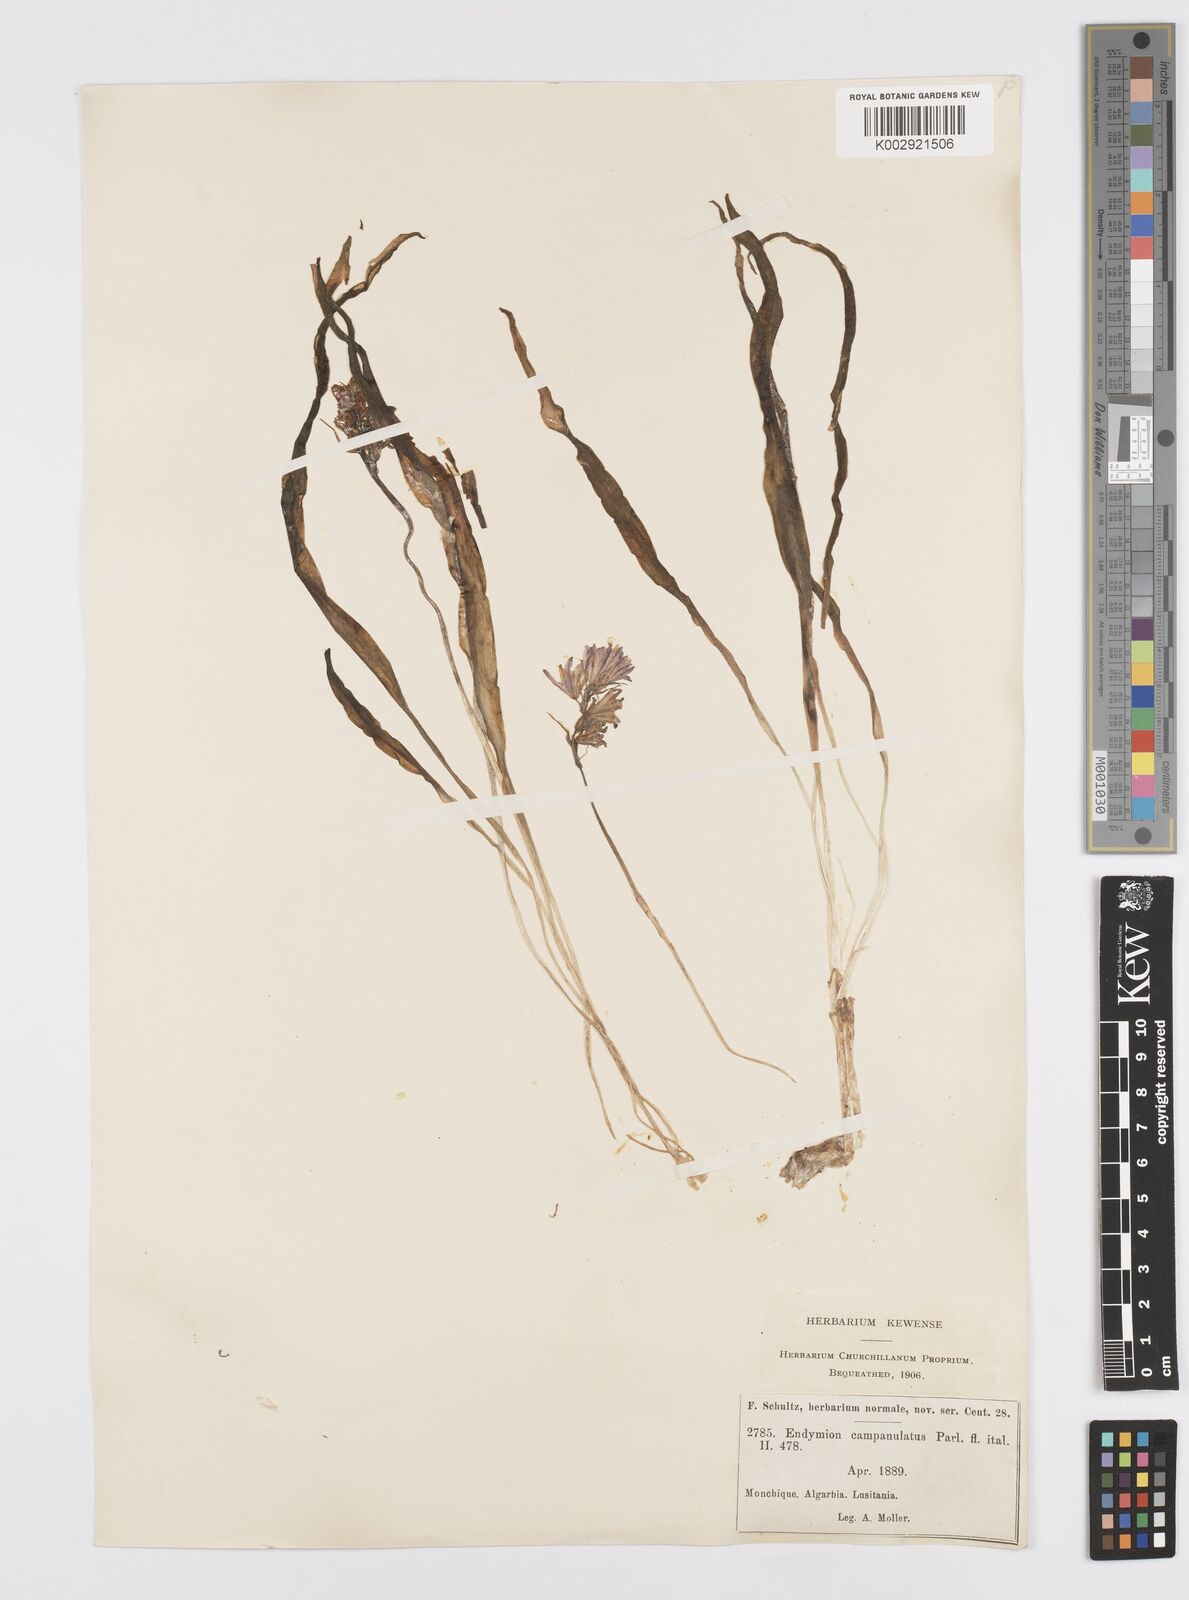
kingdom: Plantae
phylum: Tracheophyta
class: Liliopsida
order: Asparagales
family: Asparagaceae
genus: Hyacinthoides
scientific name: Hyacinthoides hispanica
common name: Spanish bluebell
